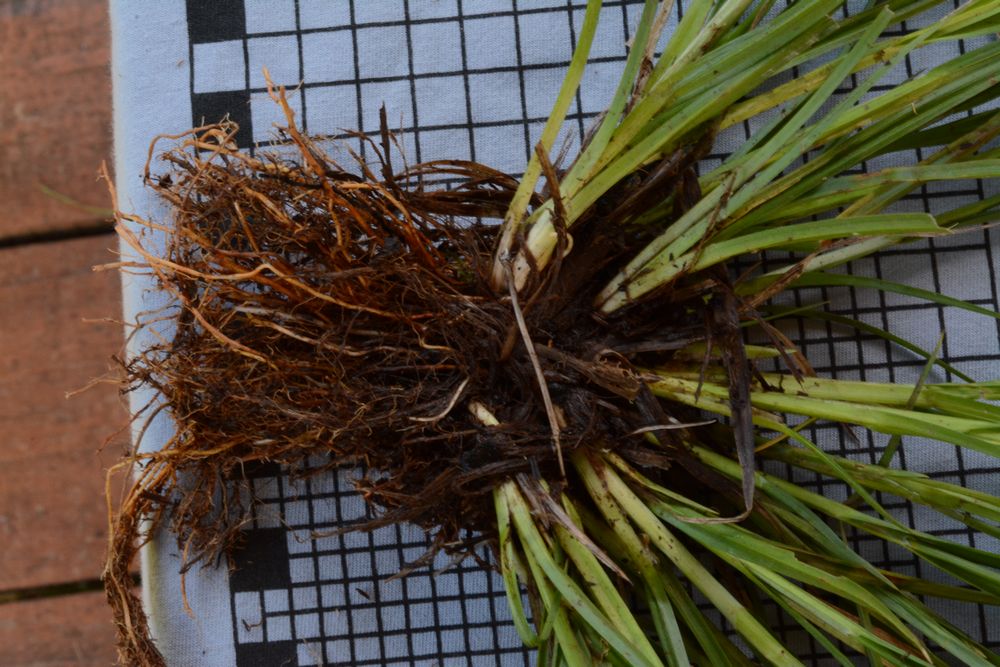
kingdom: Plantae
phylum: Tracheophyta
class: Liliopsida
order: Poales
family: Cyperaceae
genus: Carex
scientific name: Carex flava
